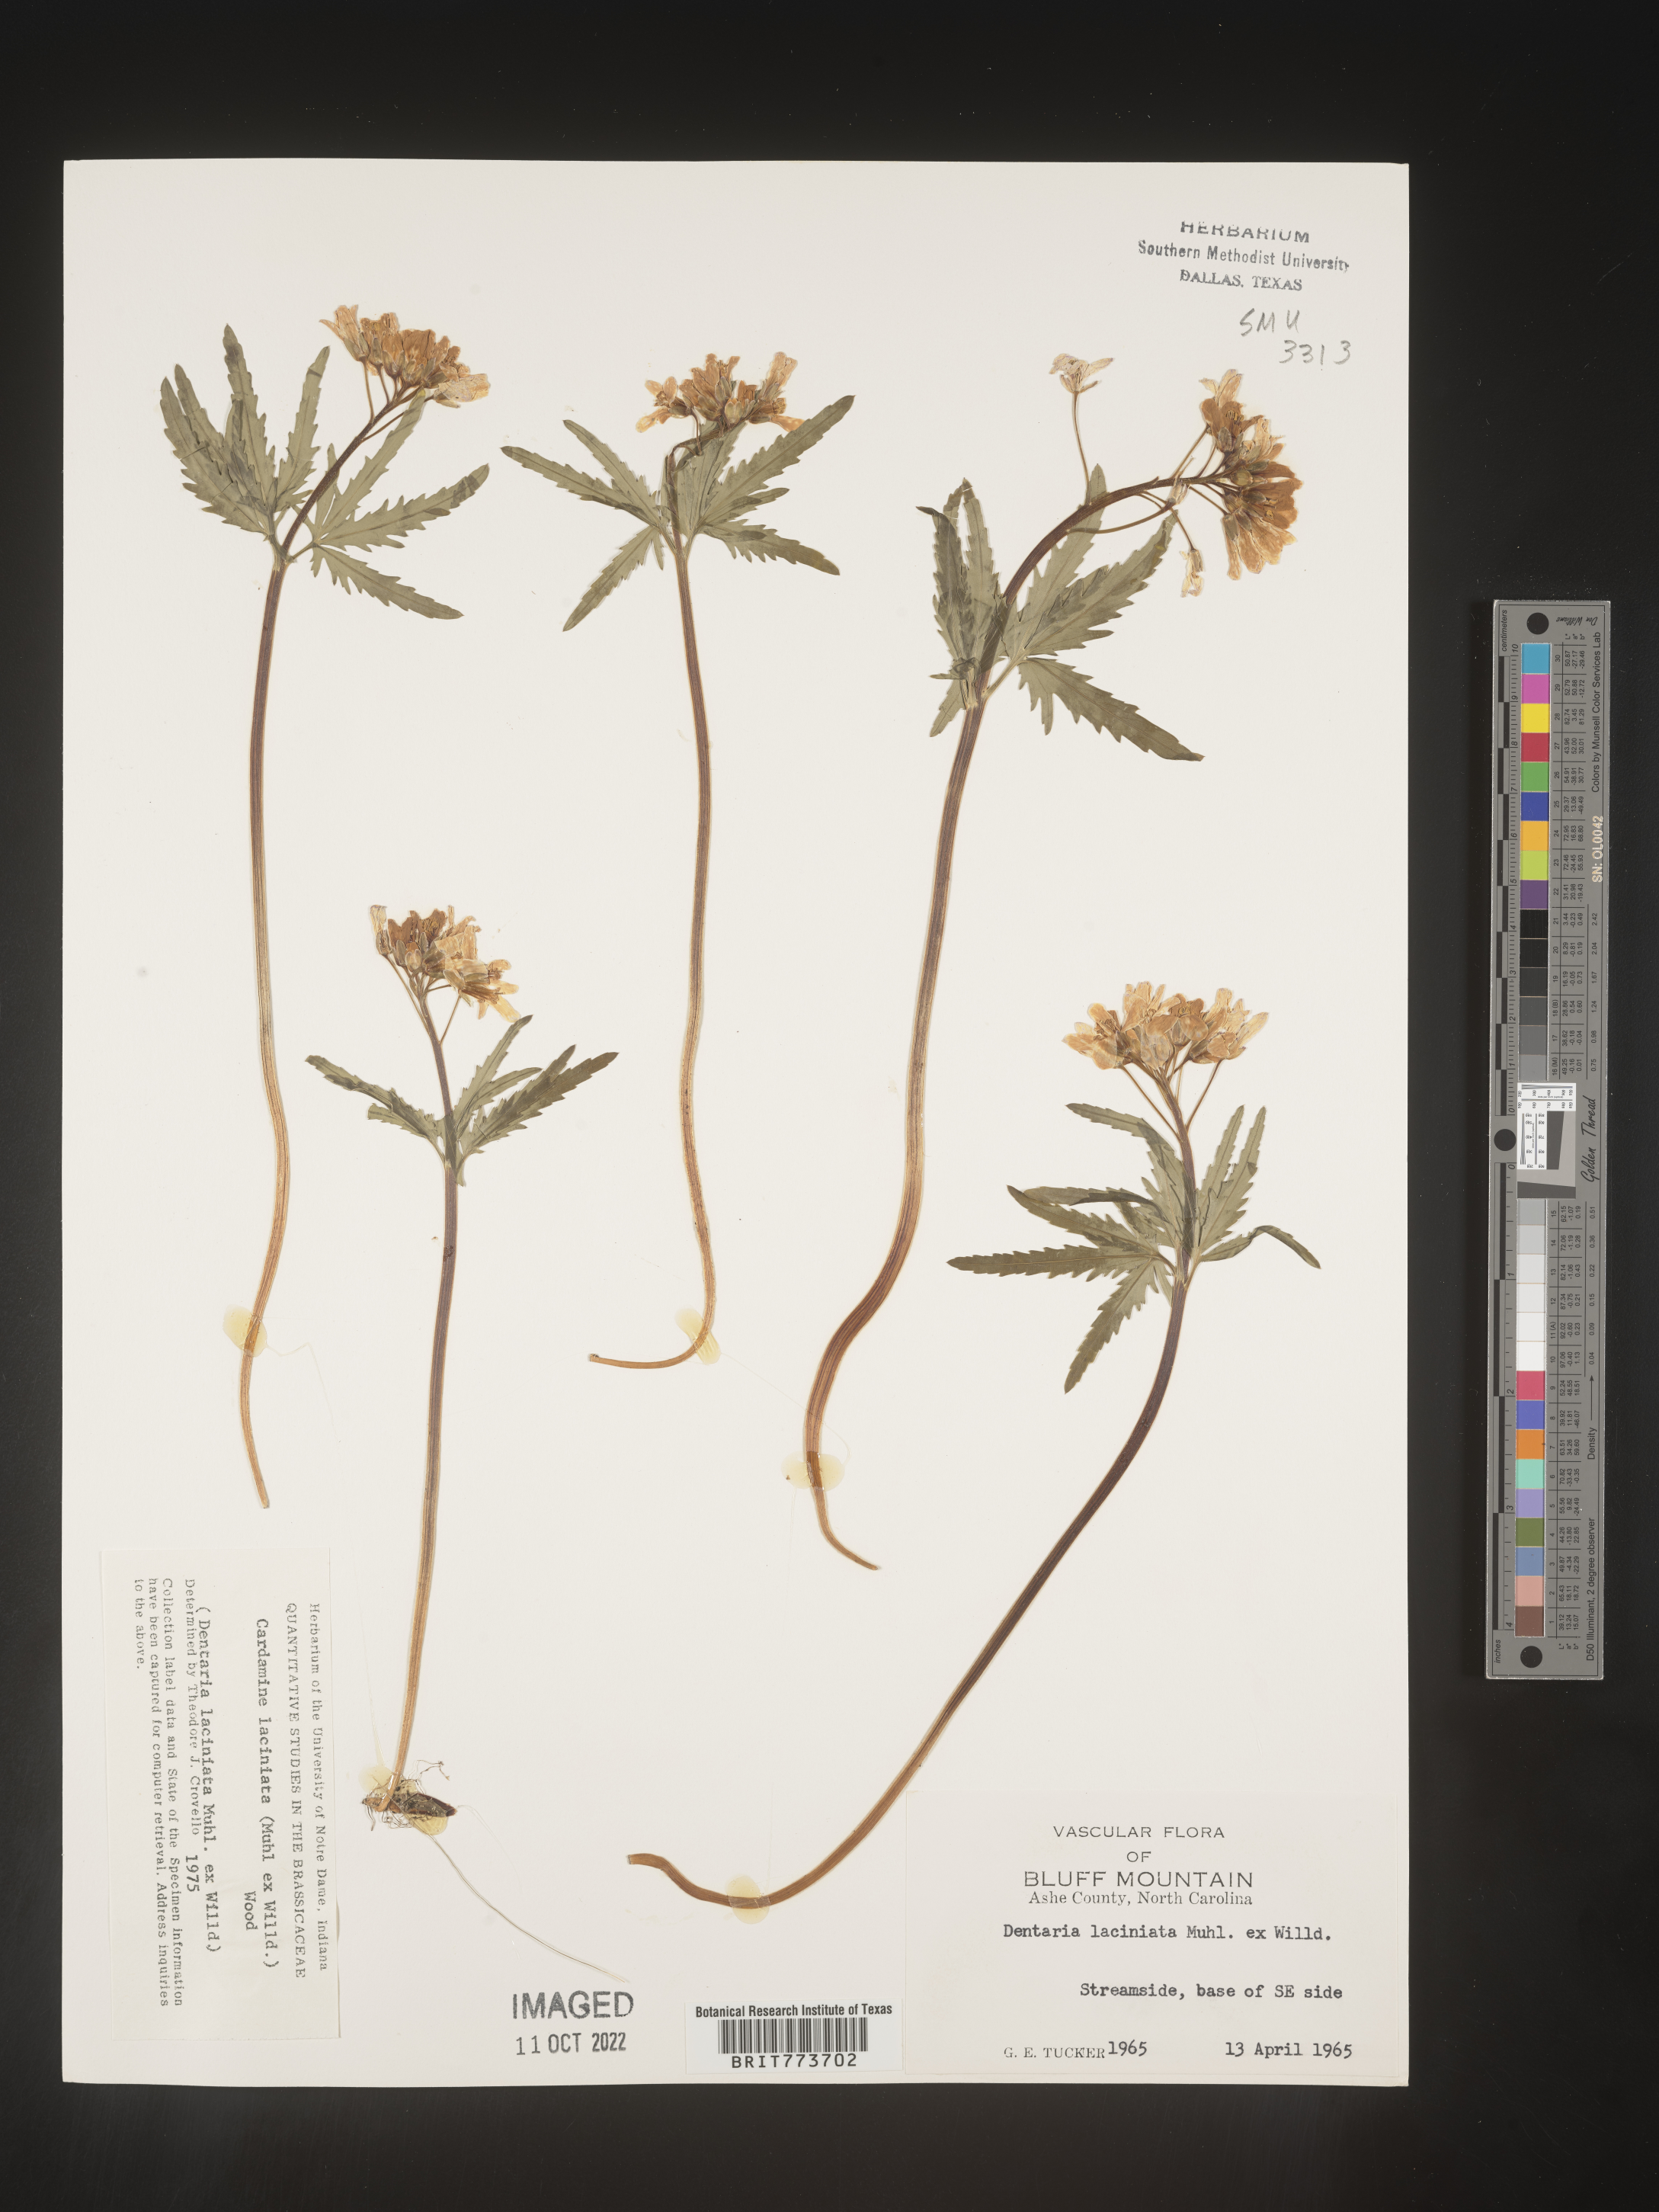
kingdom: Plantae
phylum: Tracheophyta
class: Magnoliopsida
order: Brassicales
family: Brassicaceae
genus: Rorippa
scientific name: Rorippa laciniata
